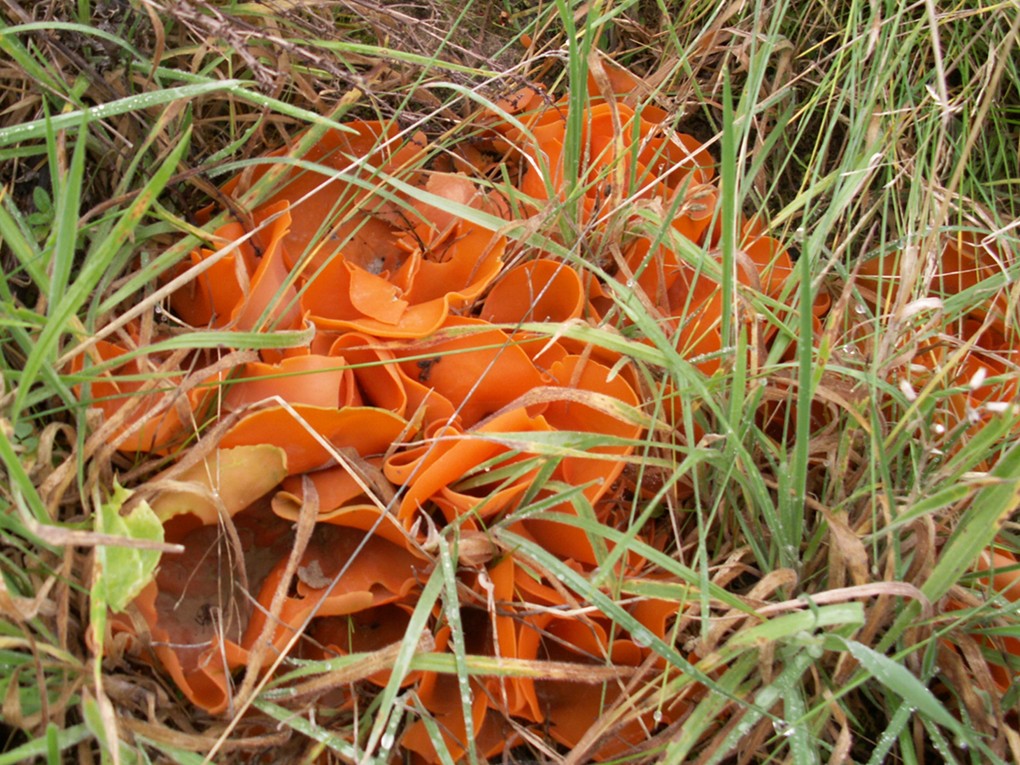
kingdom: Fungi
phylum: Ascomycota
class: Pezizomycetes
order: Pezizales
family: Pyronemataceae
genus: Aleuria
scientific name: Aleuria aurantia
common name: almindelig orangebæger
